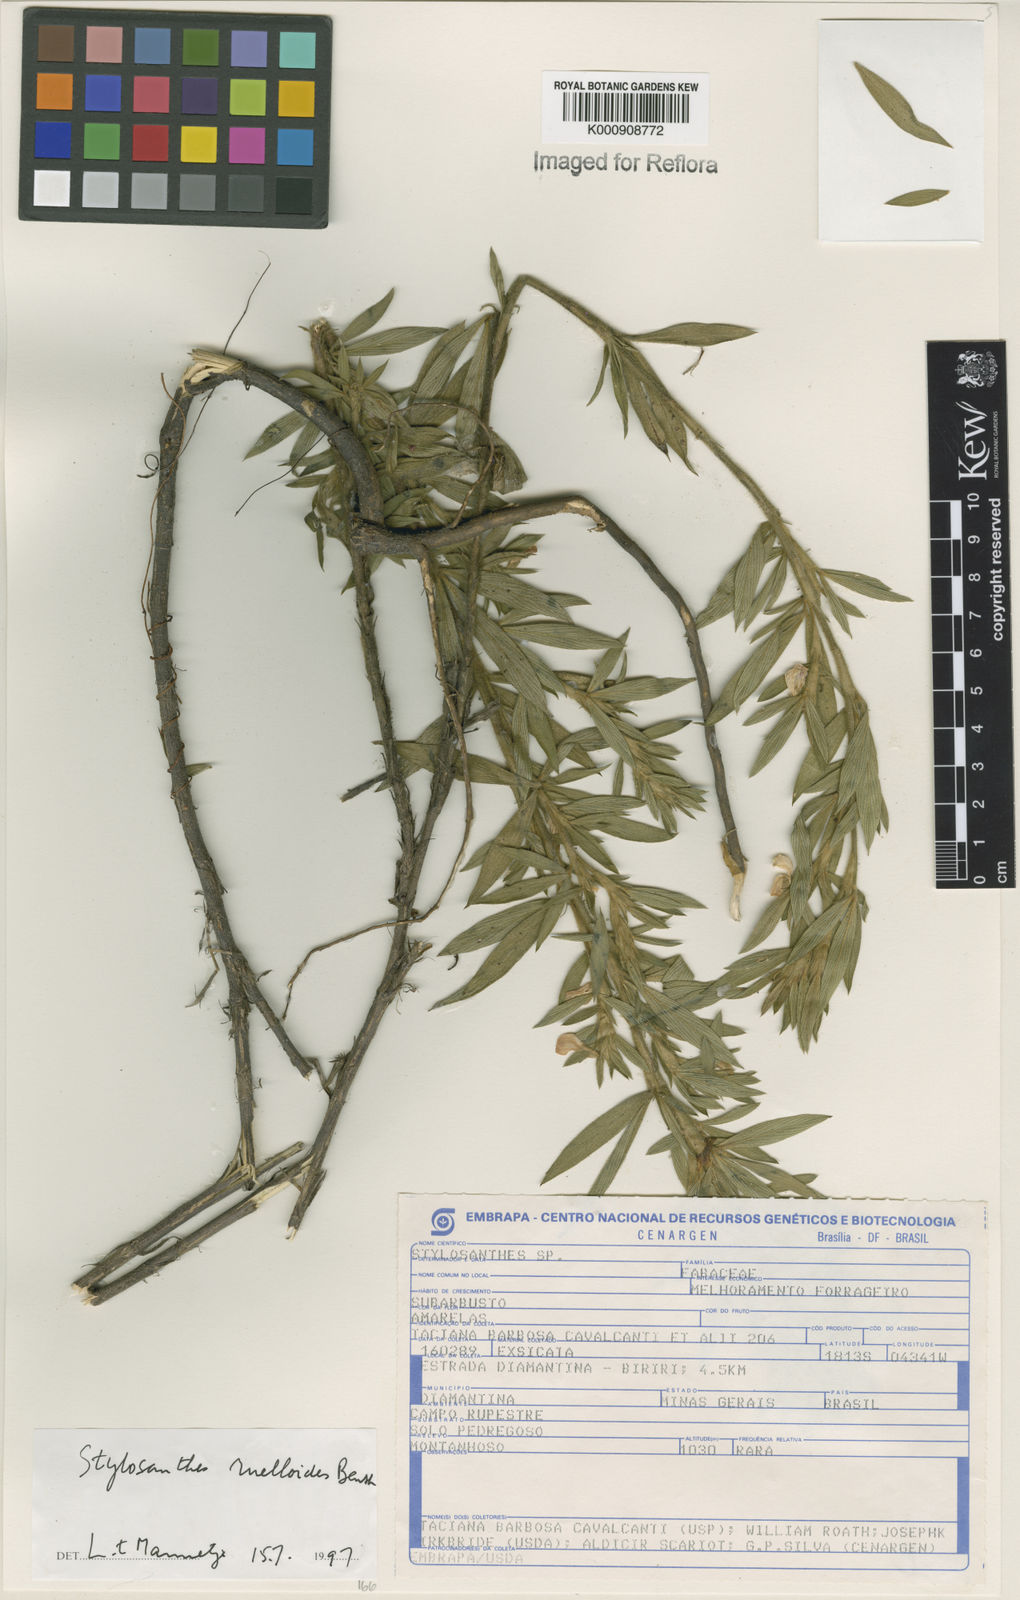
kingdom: Plantae
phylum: Tracheophyta
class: Magnoliopsida
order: Fabales
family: Fabaceae
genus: Stylosanthes
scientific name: Stylosanthes ruellioides
